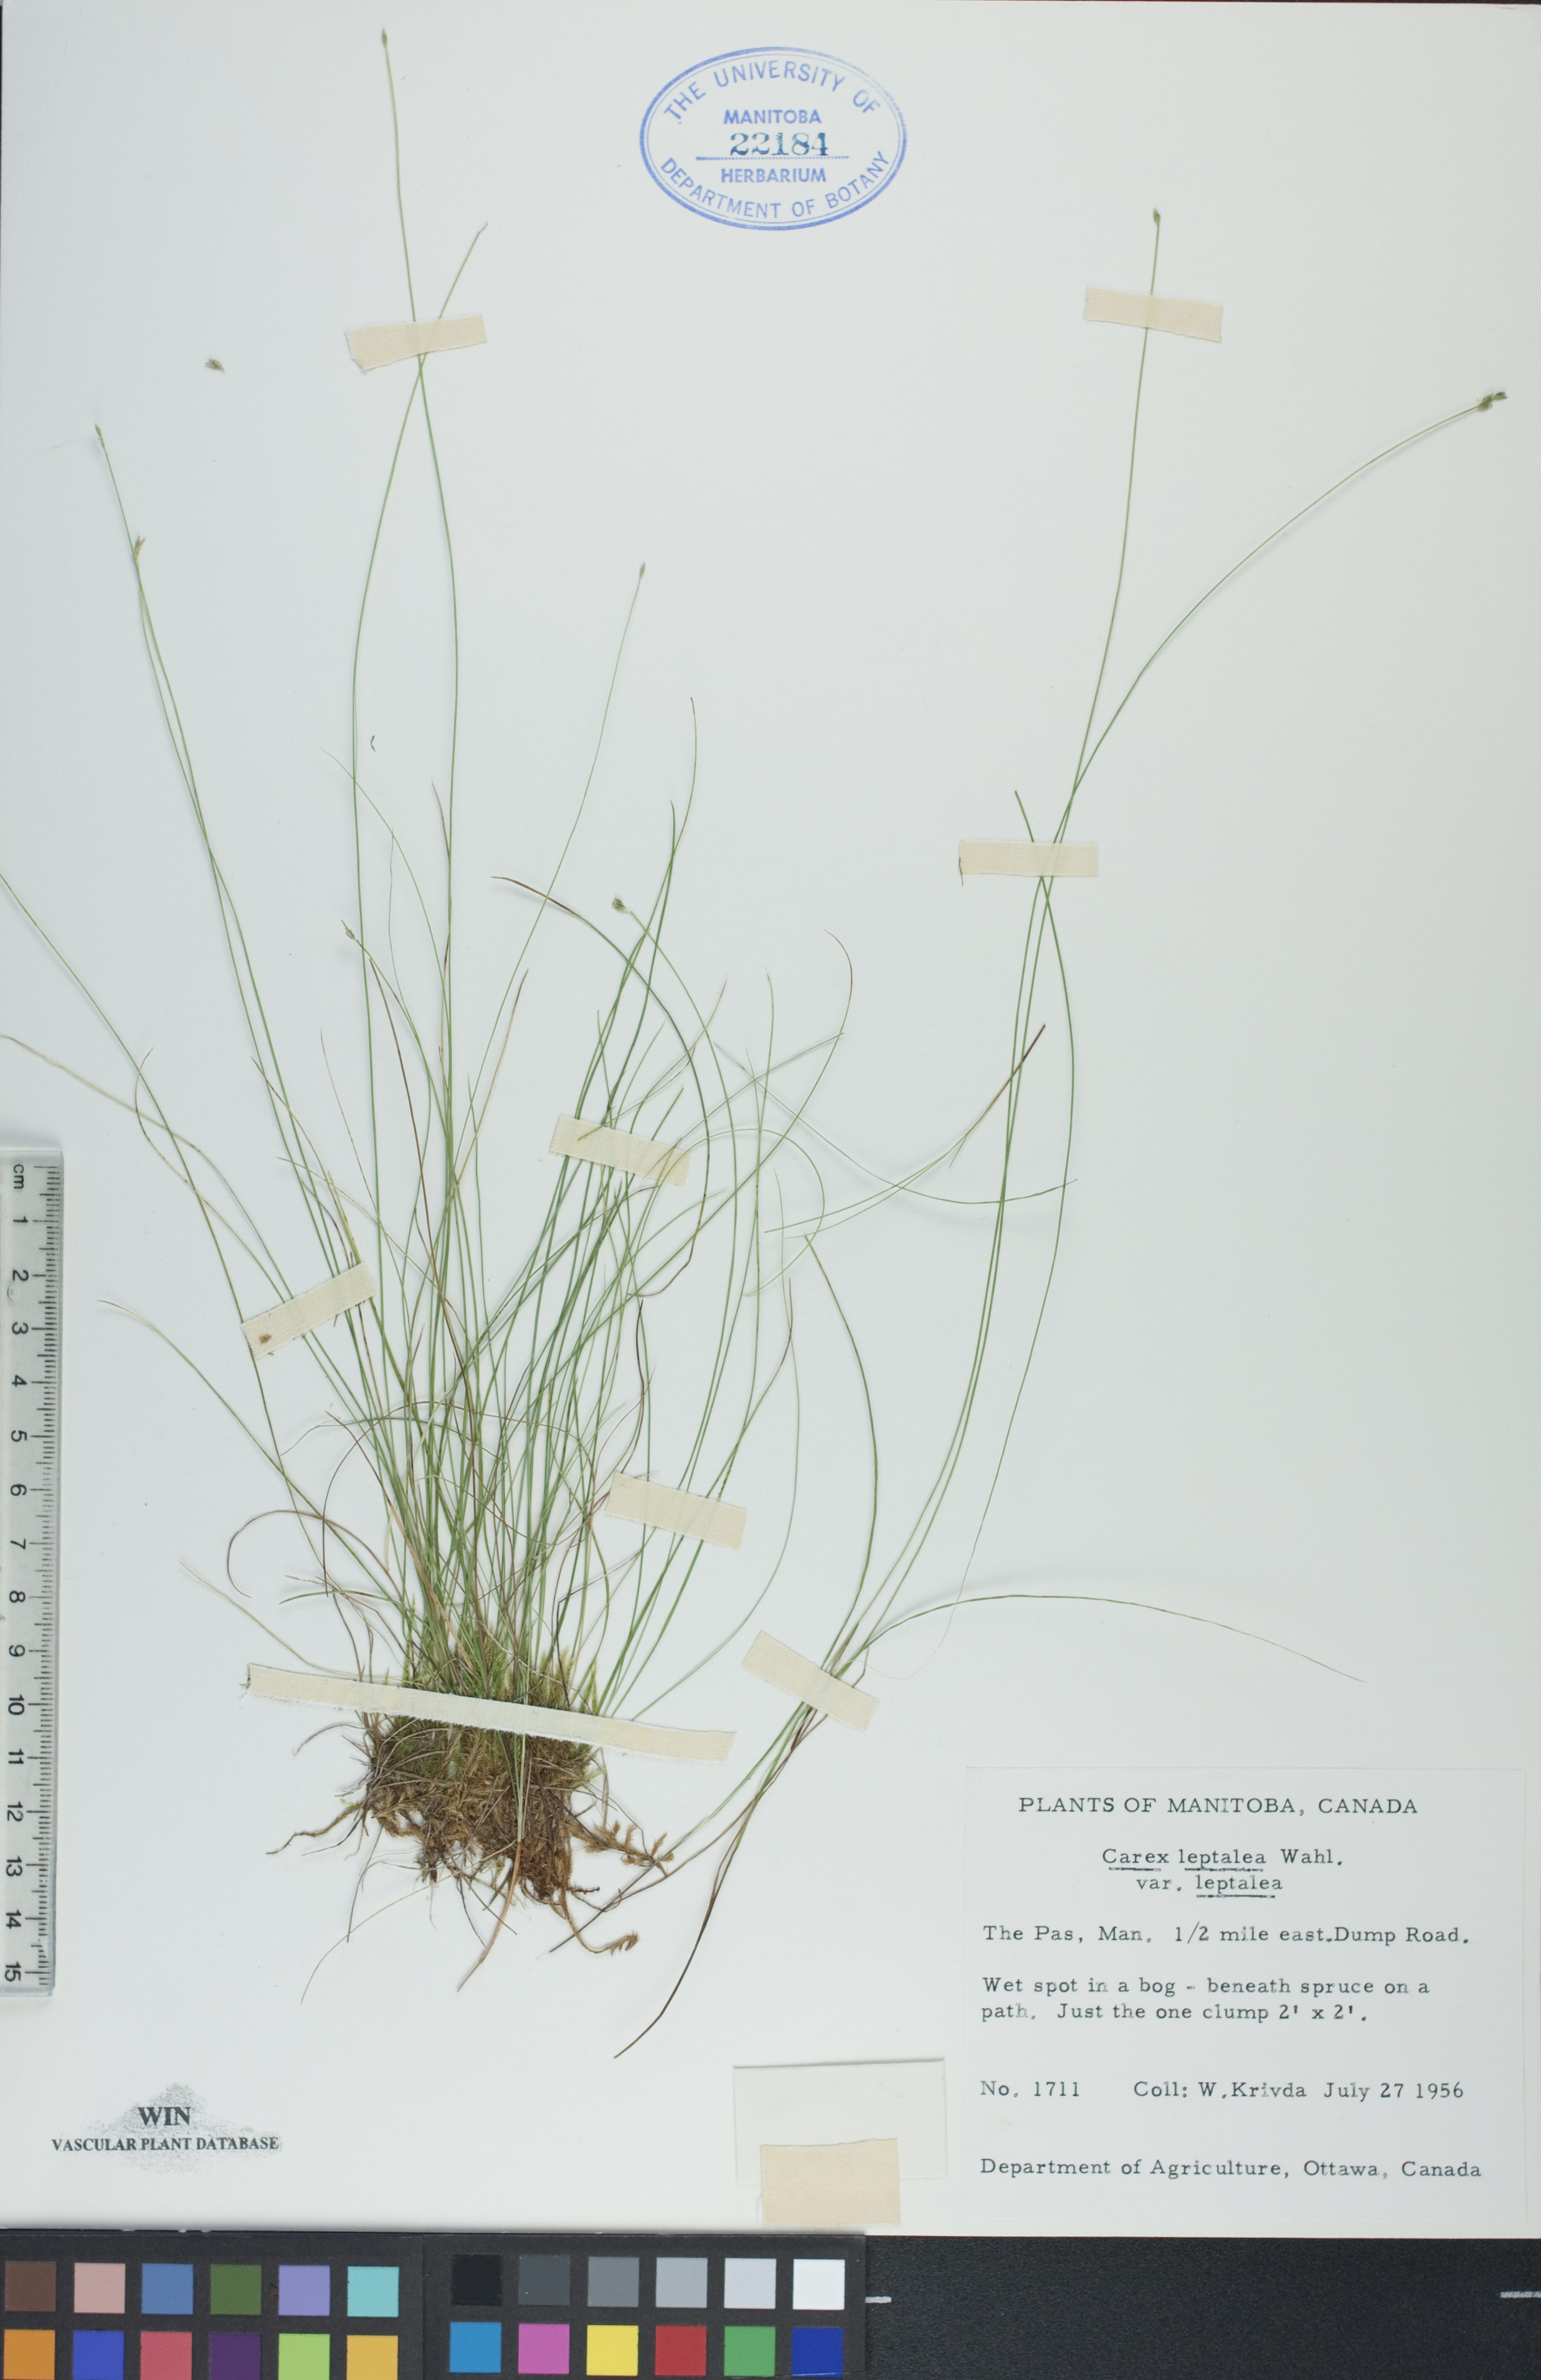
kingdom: Plantae
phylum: Tracheophyta
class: Liliopsida
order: Poales
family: Cyperaceae
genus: Carex
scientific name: Carex leptalea
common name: Bristly-stalked sedge
